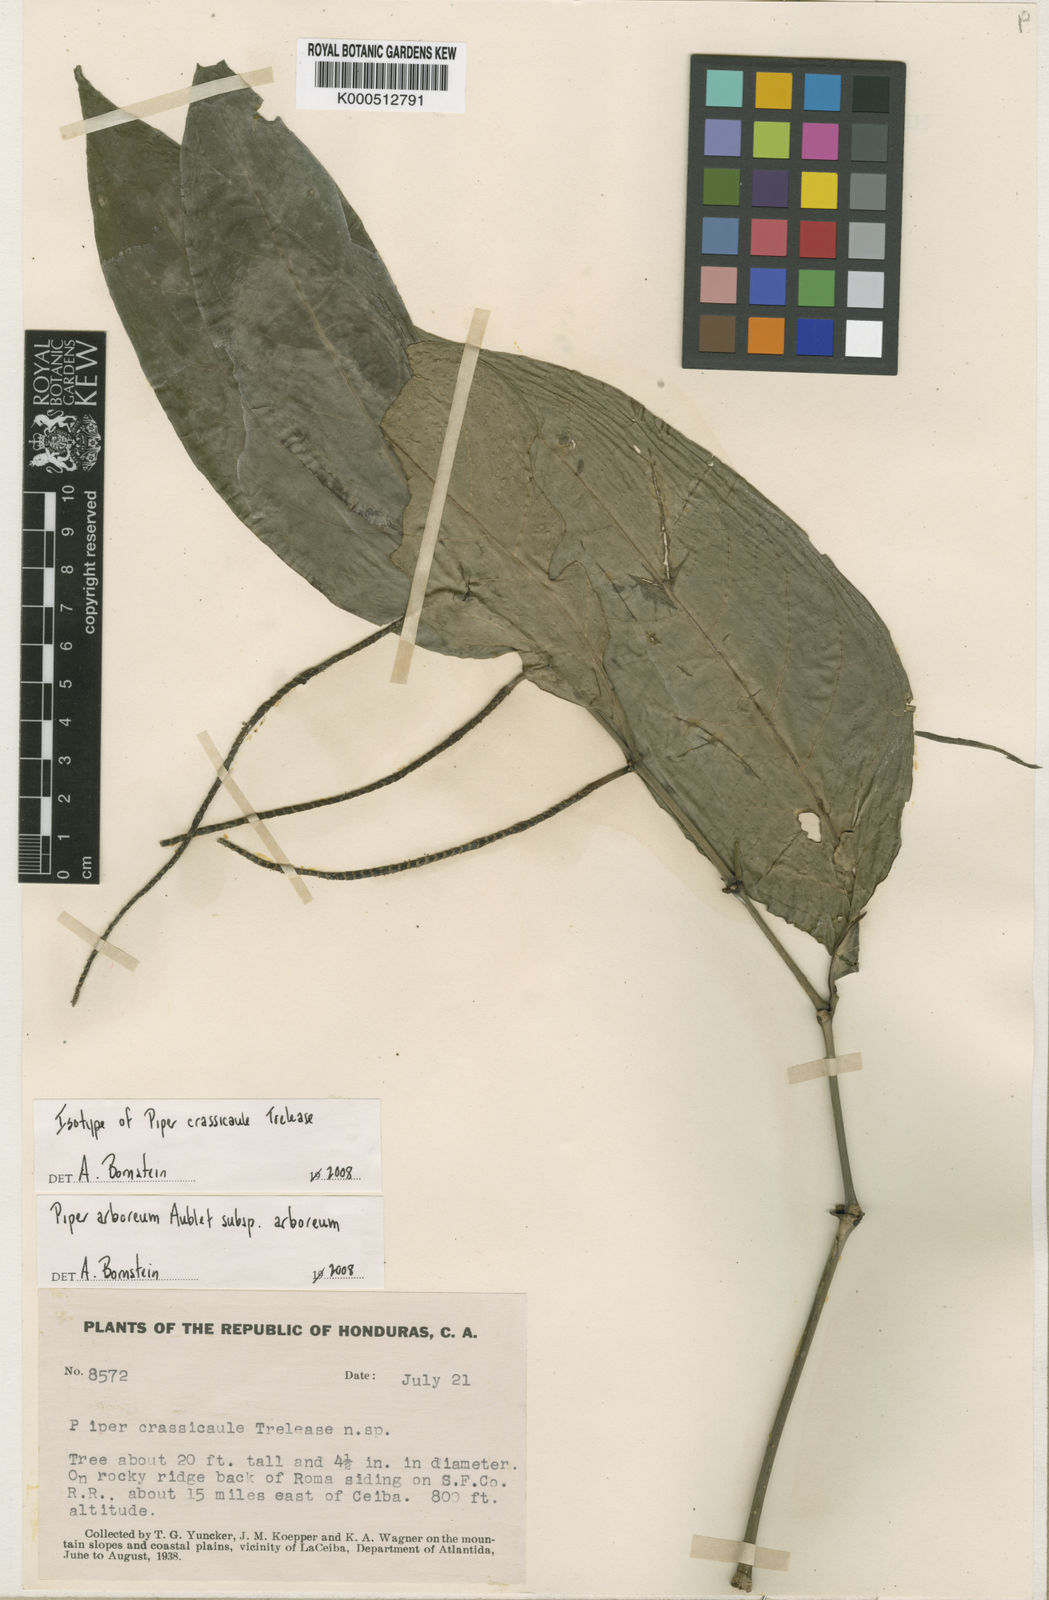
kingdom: Plantae
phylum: Tracheophyta
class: Magnoliopsida
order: Piperales
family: Piperaceae
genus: Piper
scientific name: Piper arboreum
